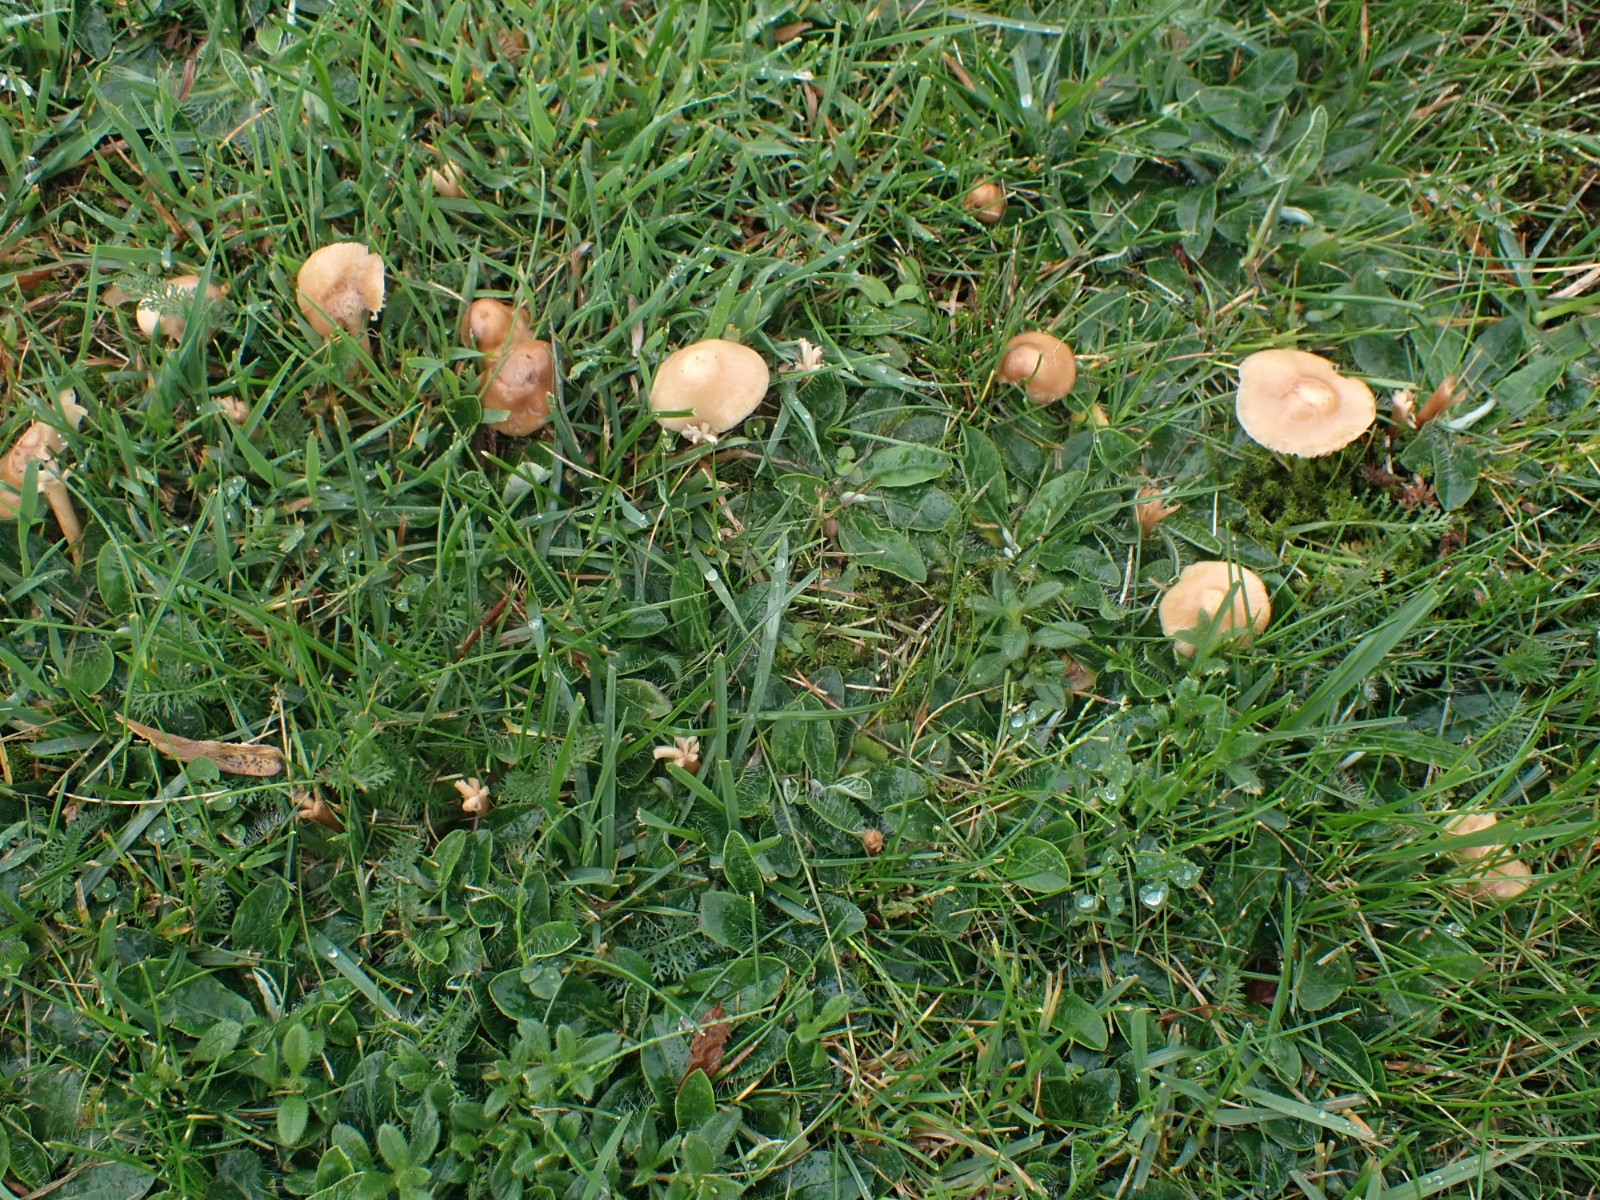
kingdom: Fungi
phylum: Basidiomycota
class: Agaricomycetes
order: Agaricales
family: Marasmiaceae
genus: Marasmius
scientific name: Marasmius oreades
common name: elledans-bruskhat
